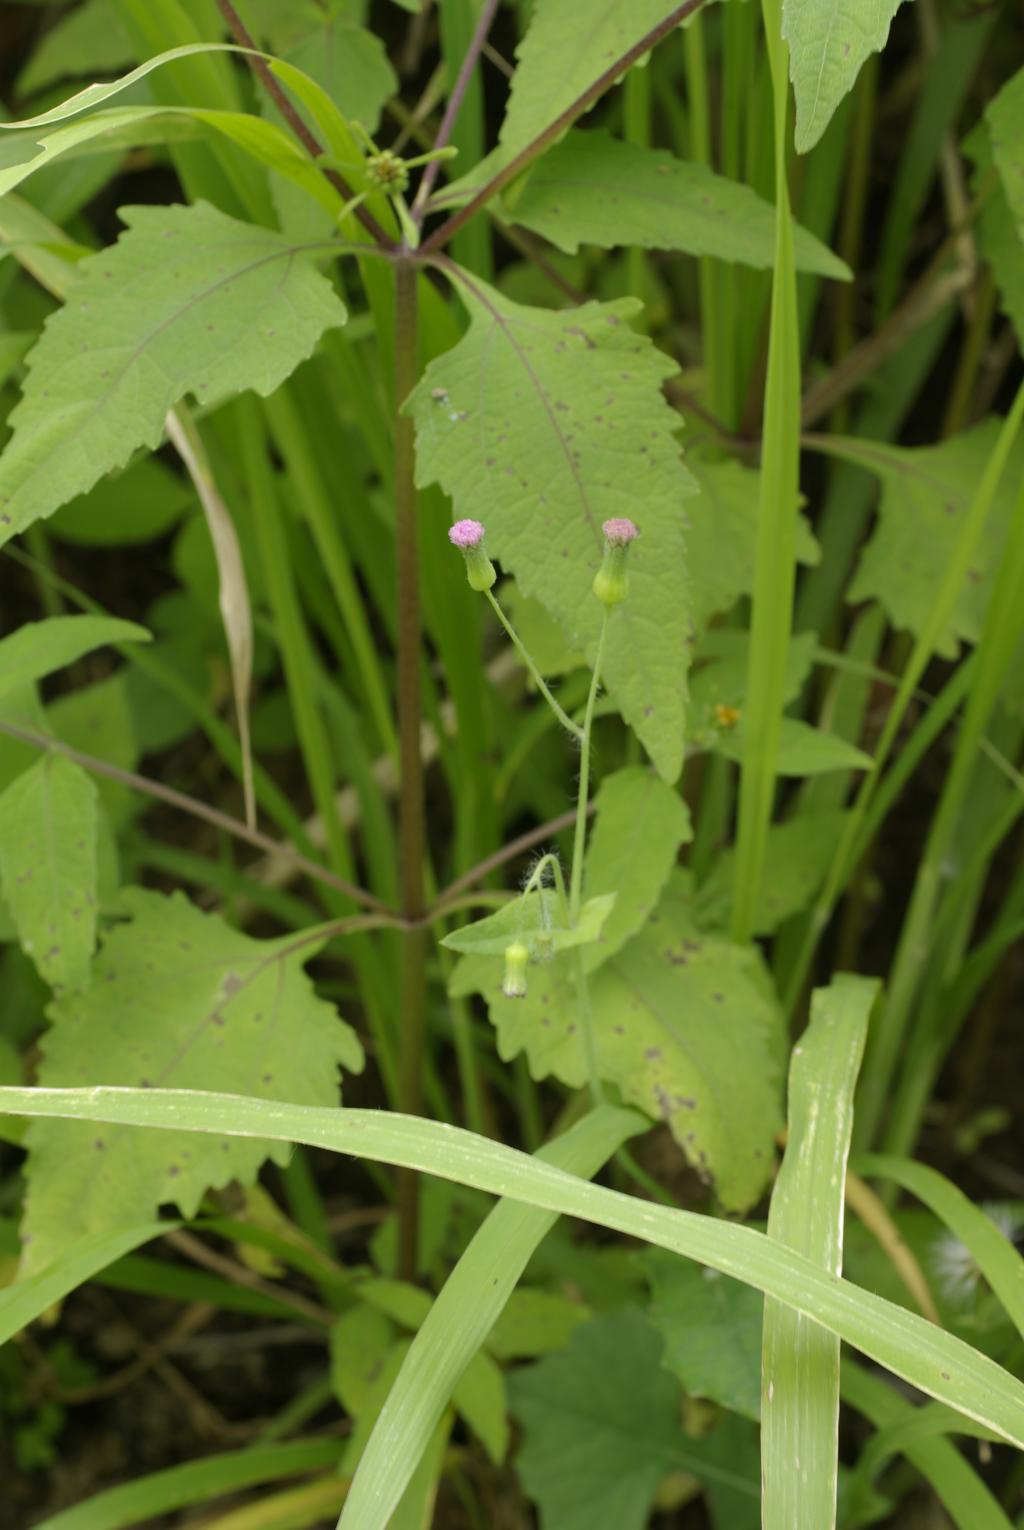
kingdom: Plantae
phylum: Tracheophyta
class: Magnoliopsida
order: Asterales
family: Asteraceae
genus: Emilia
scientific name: Emilia sonchifolia
